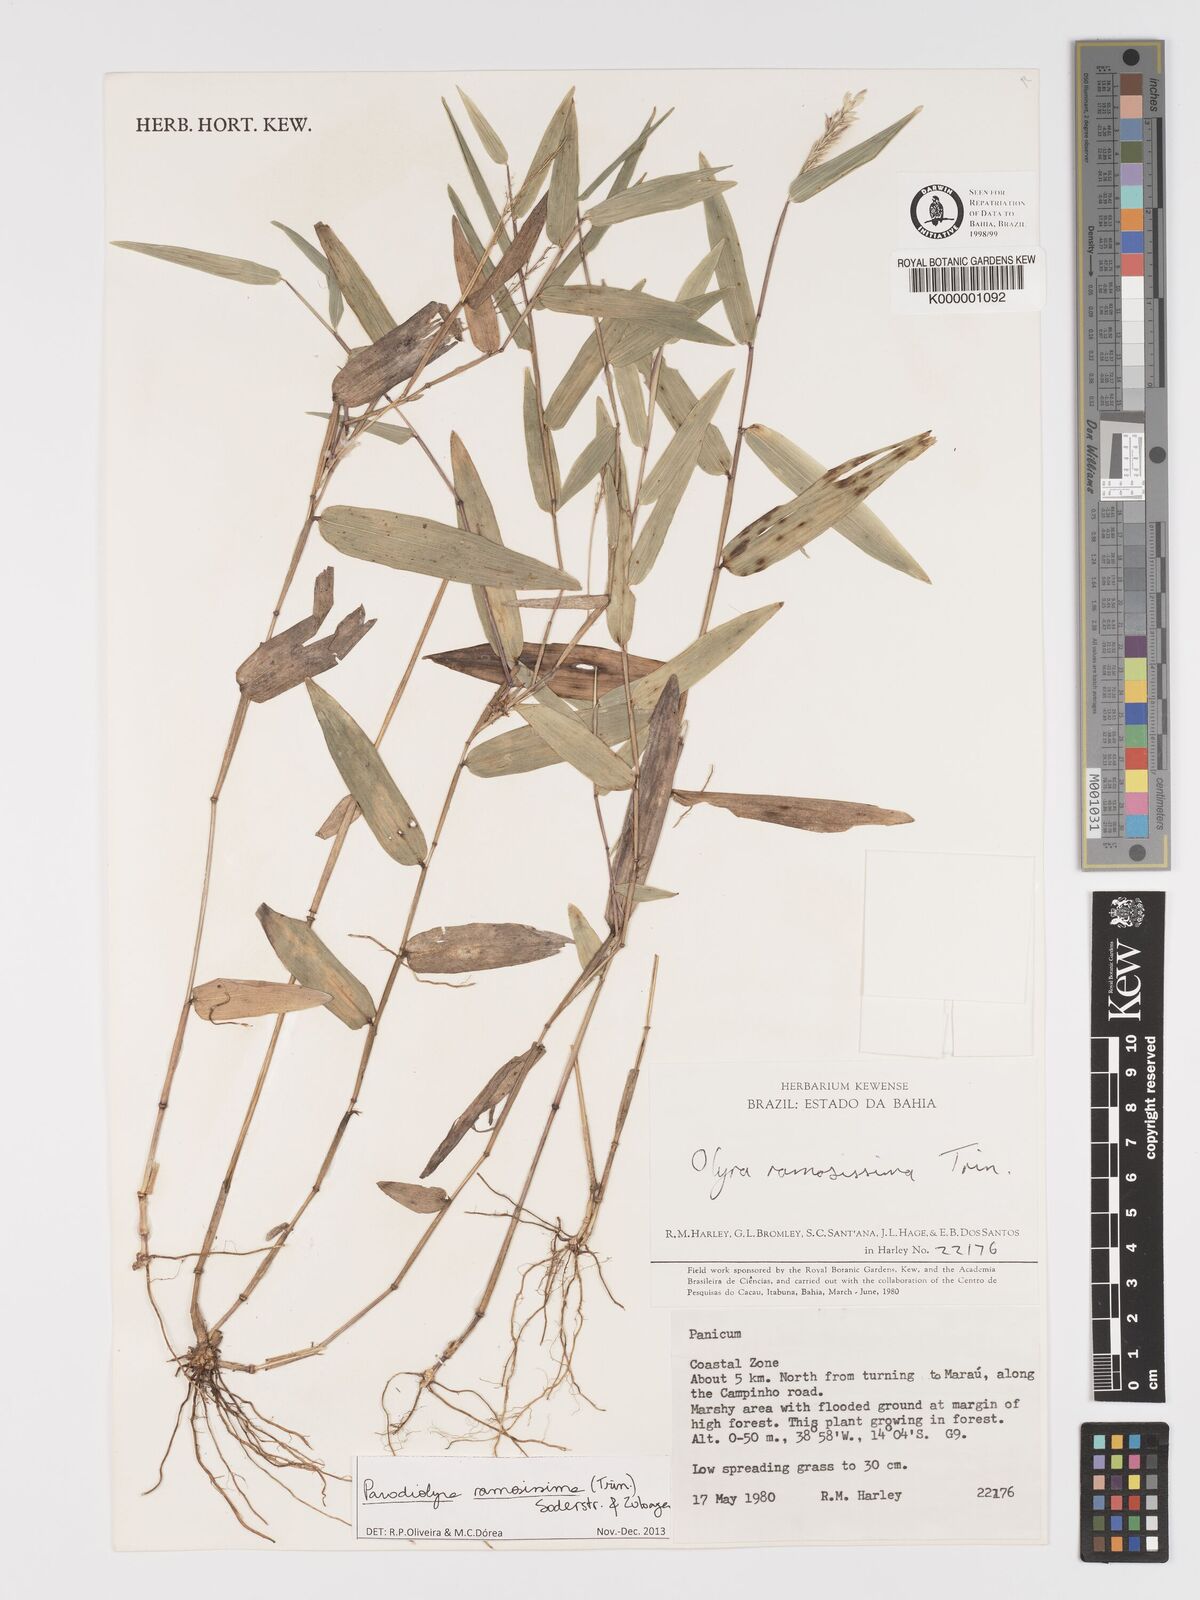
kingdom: Plantae
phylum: Tracheophyta
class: Liliopsida
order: Poales
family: Poaceae
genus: Parodiolyra
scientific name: Parodiolyra ramosissima
